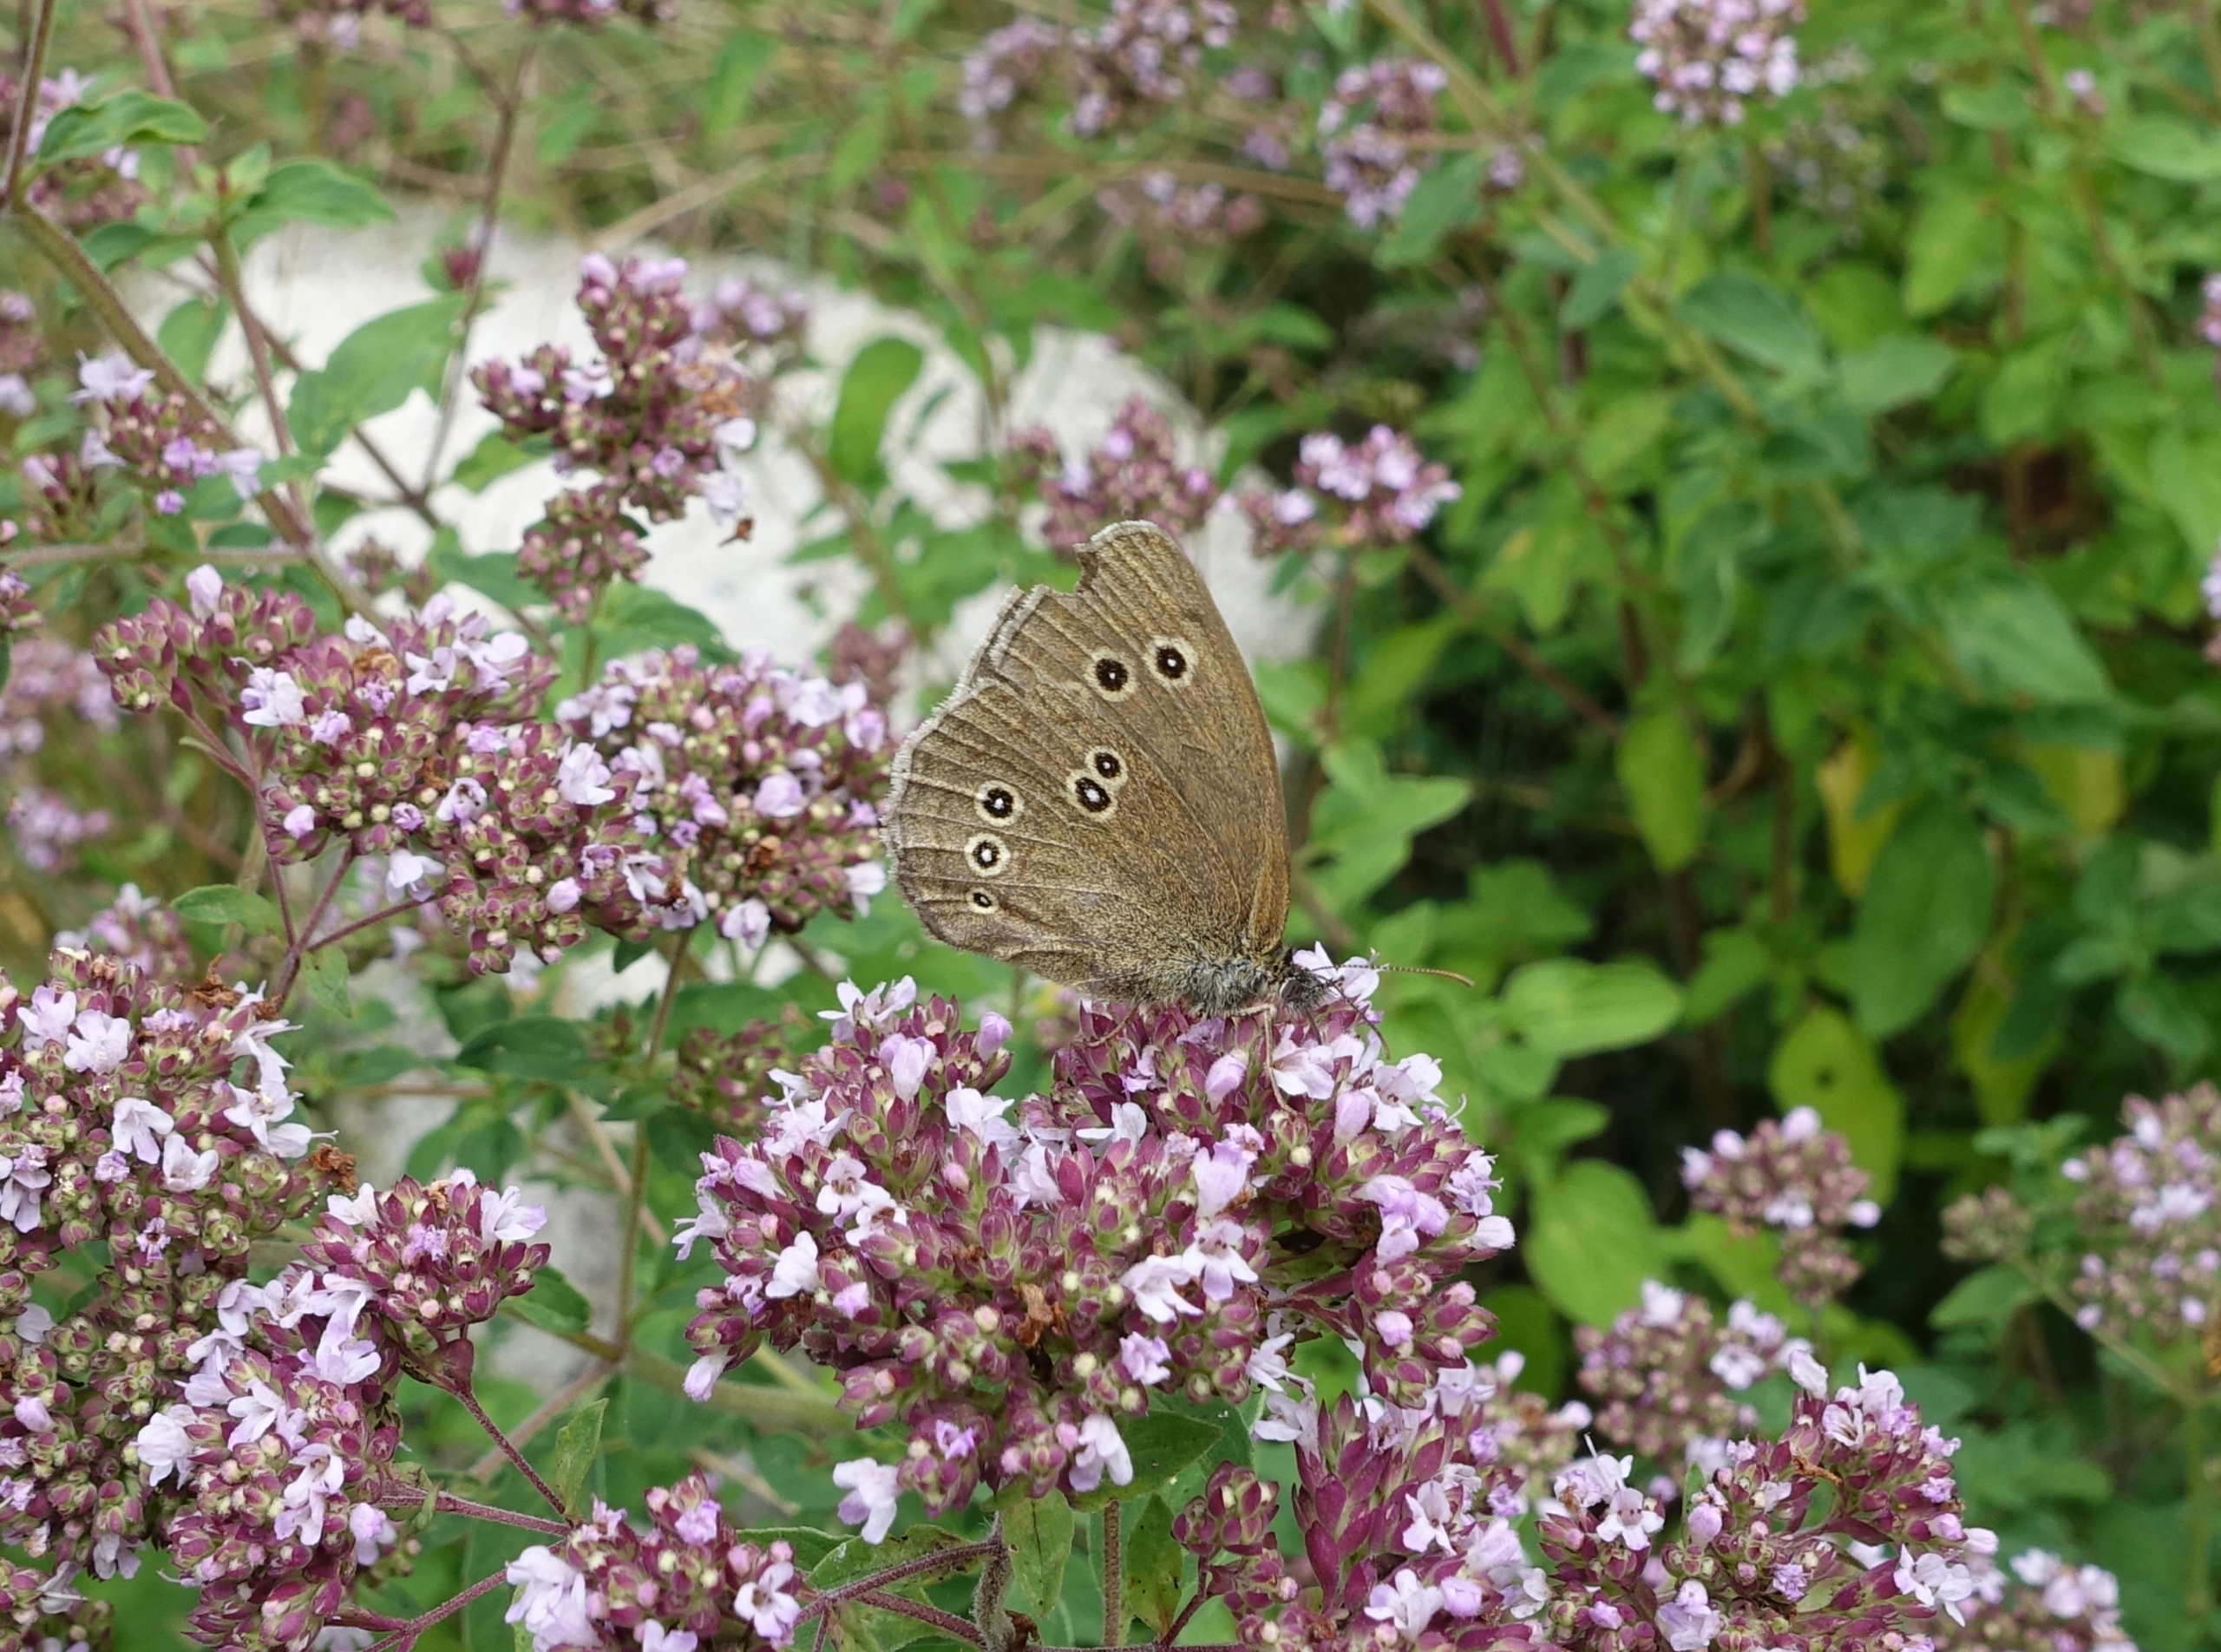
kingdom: Animalia
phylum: Arthropoda
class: Insecta
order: Lepidoptera
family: Nymphalidae
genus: Aphantopus
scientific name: Aphantopus hyperantus
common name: Engrandøje
